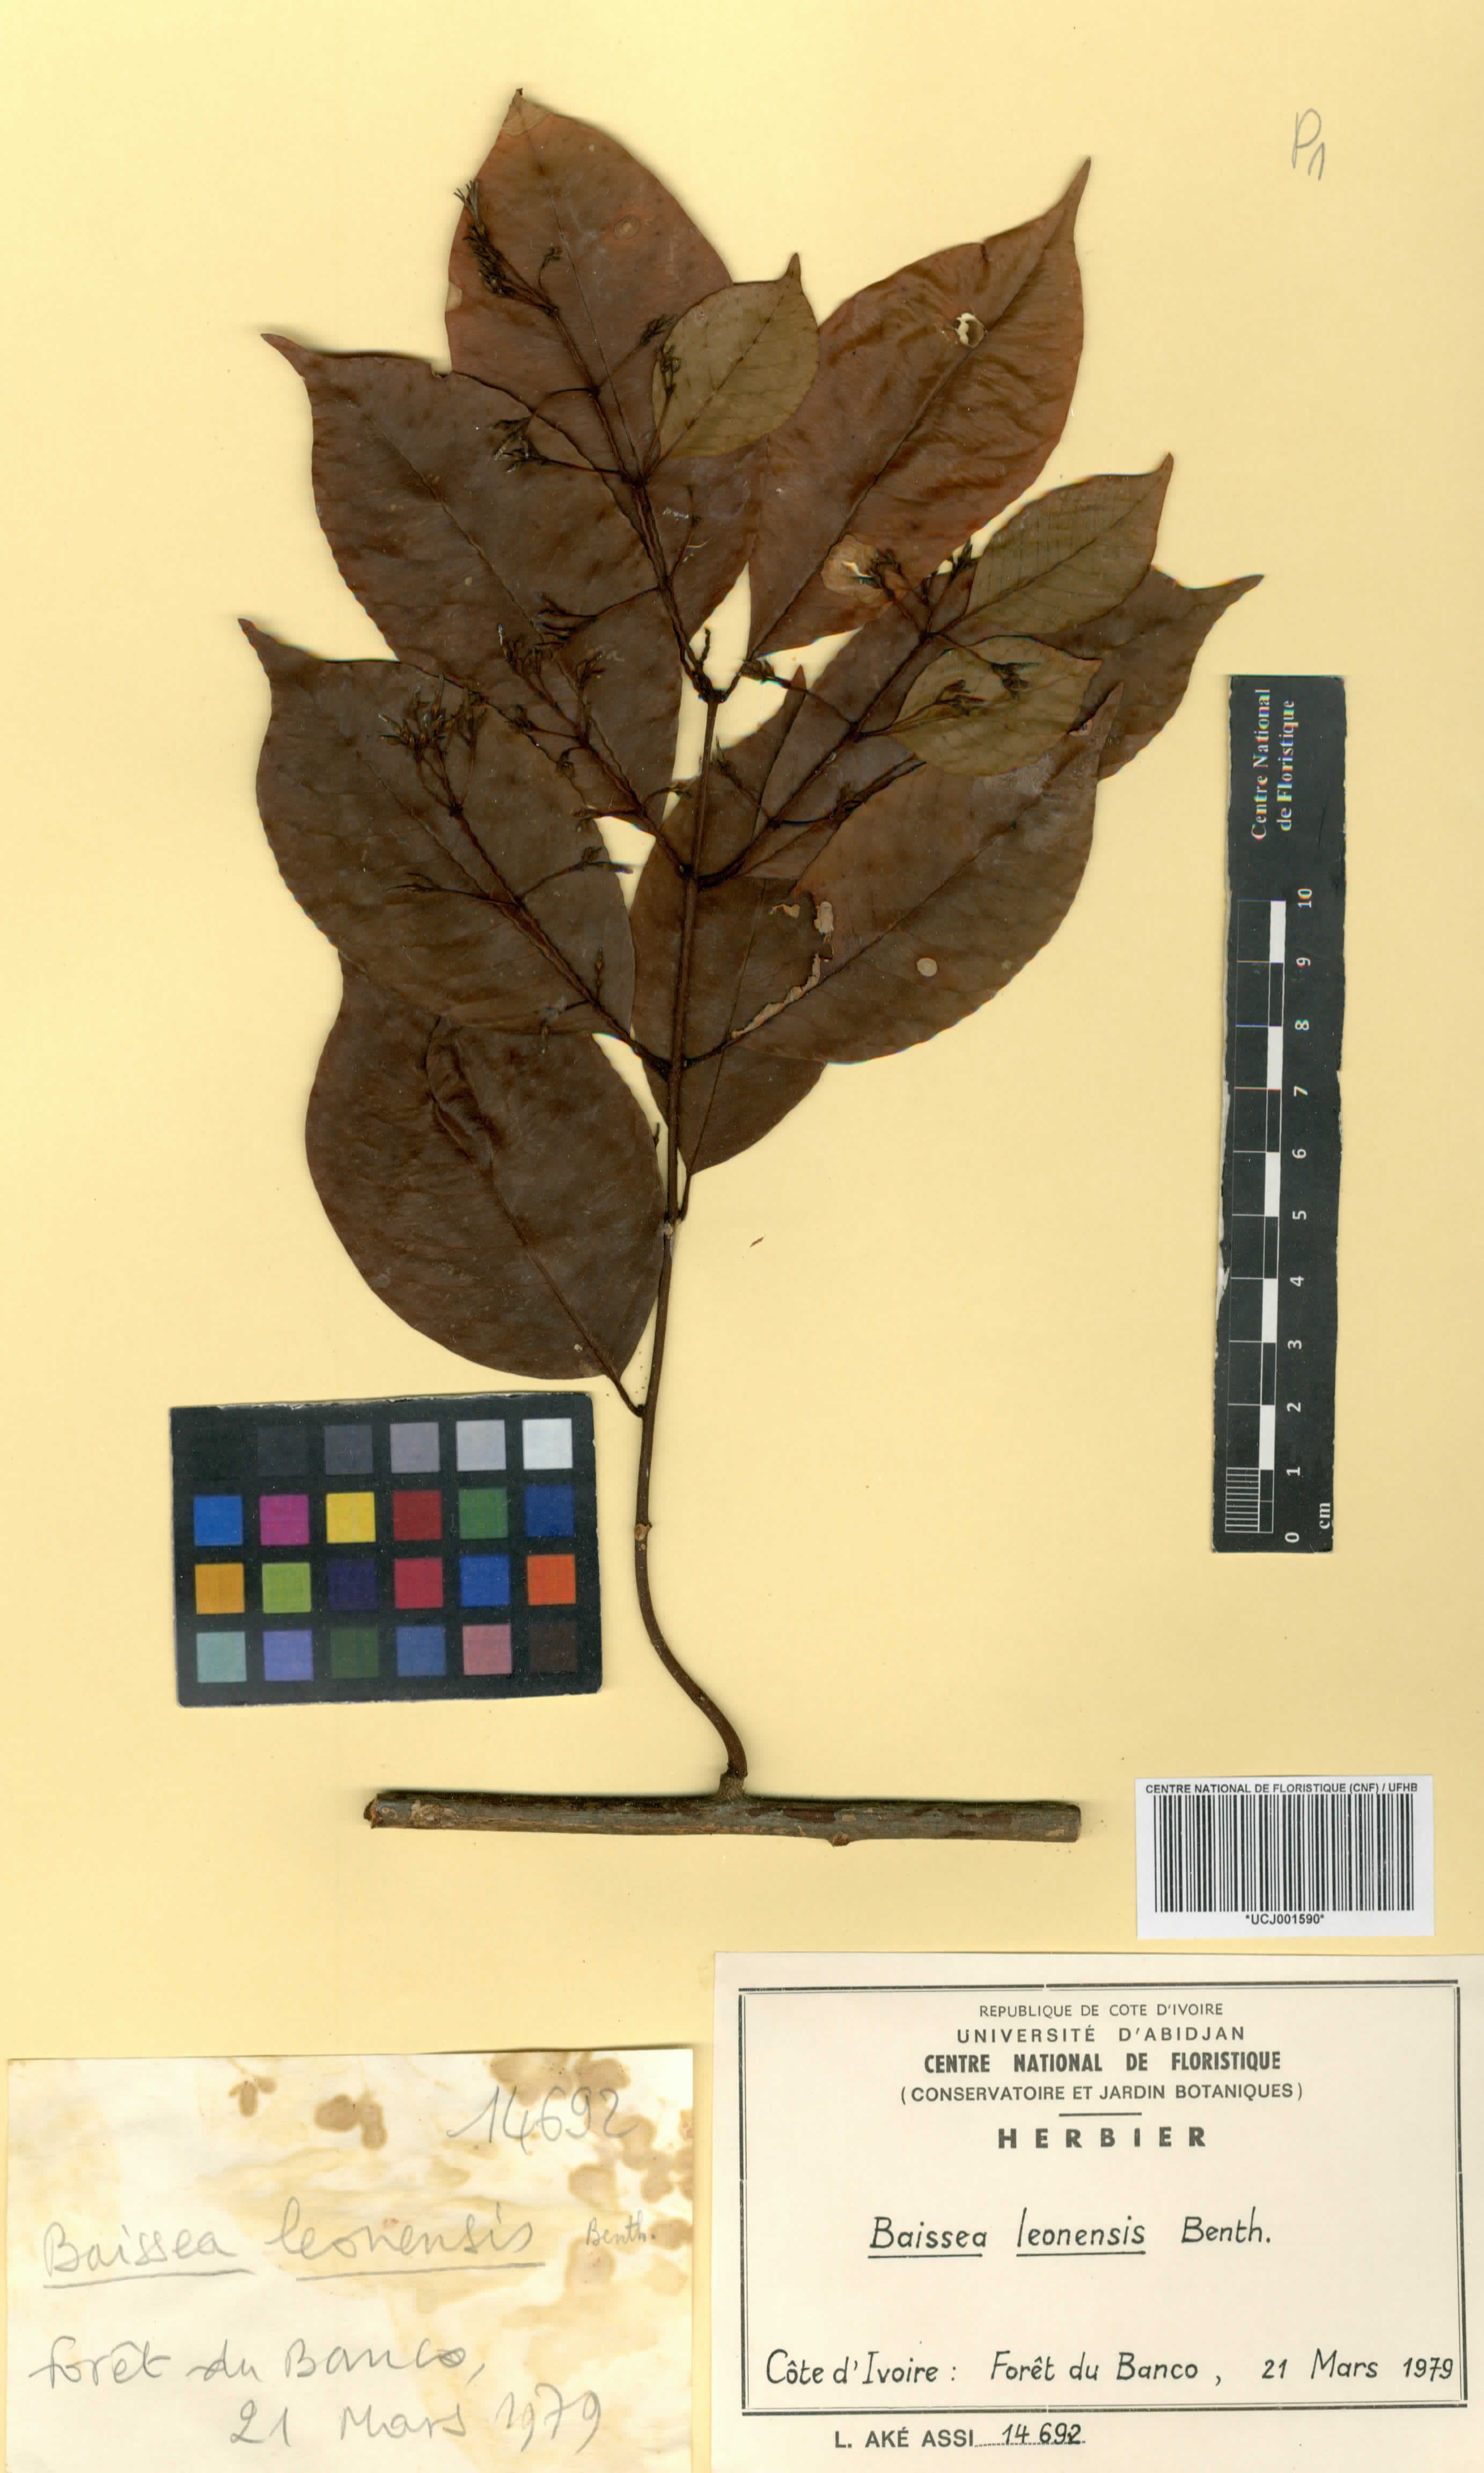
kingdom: Plantae
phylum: Tracheophyta
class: Magnoliopsida
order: Gentianales
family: Apocynaceae
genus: Baissea
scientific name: Baissea multiflora
